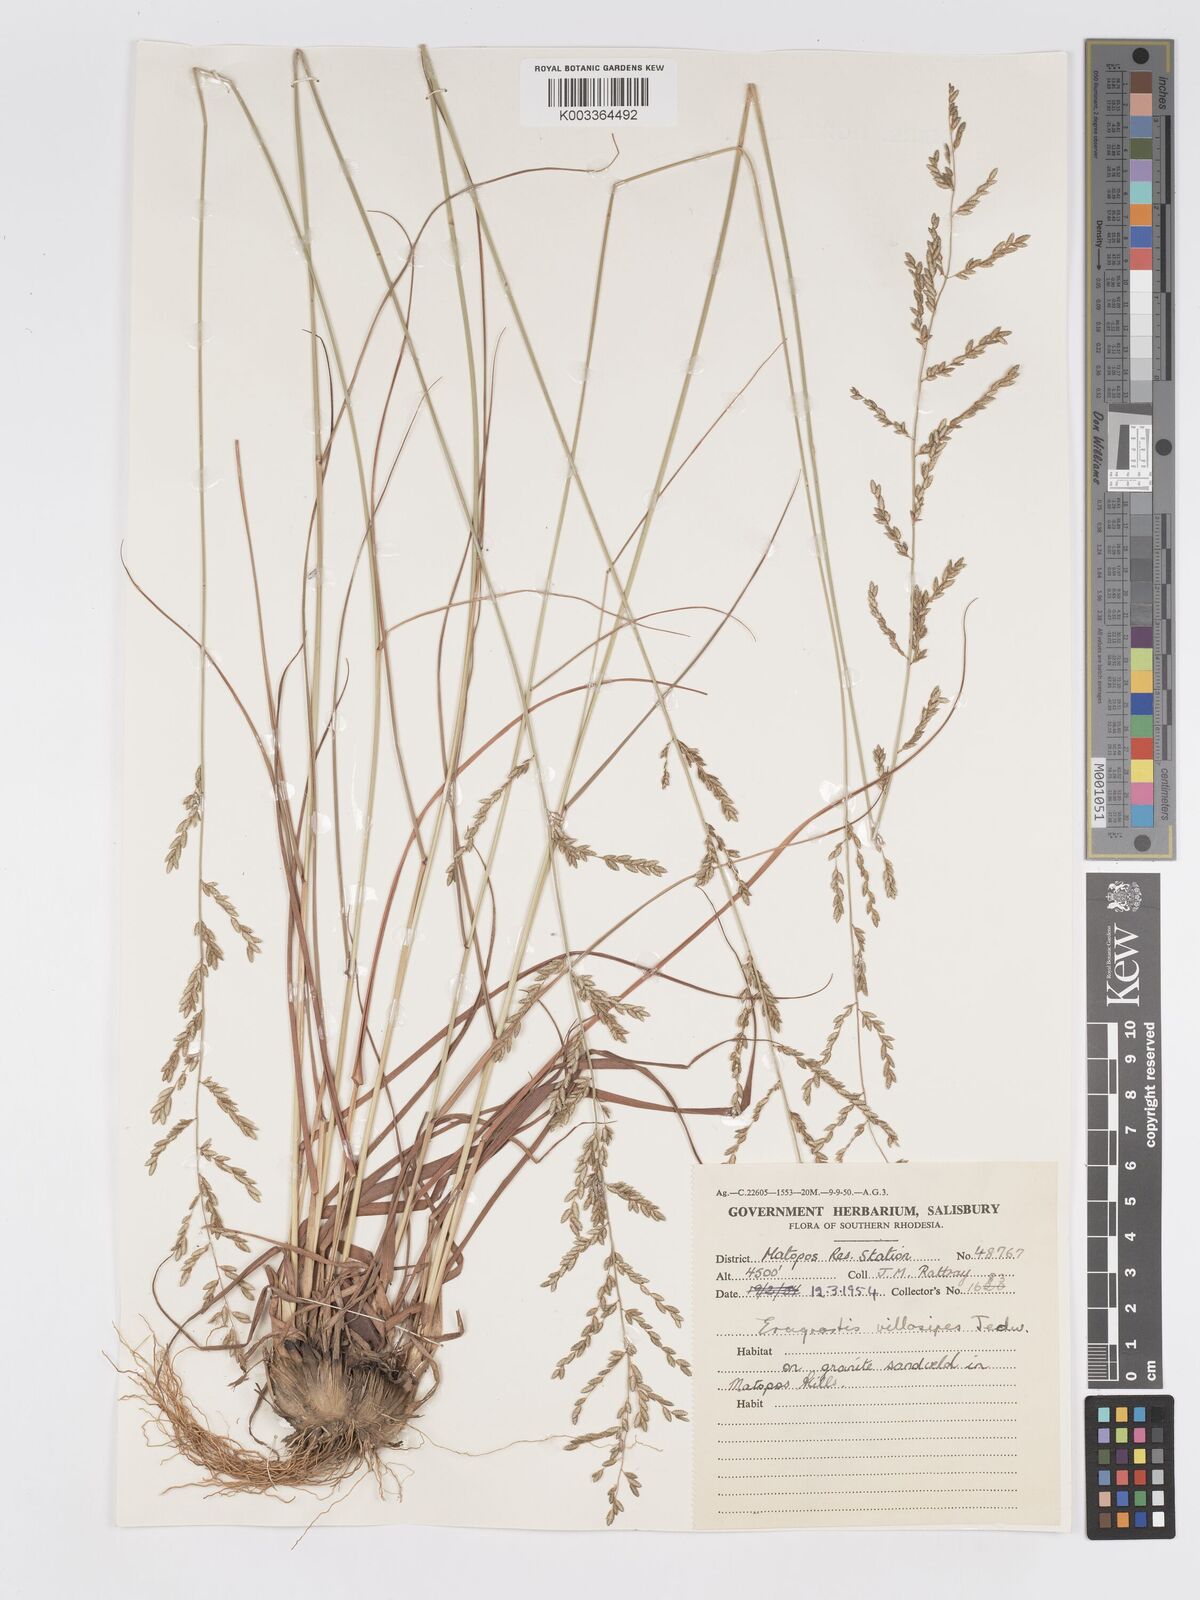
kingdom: Plantae
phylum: Tracheophyta
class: Liliopsida
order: Poales
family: Poaceae
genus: Eragrostis
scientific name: Eragrostis sclerantha
